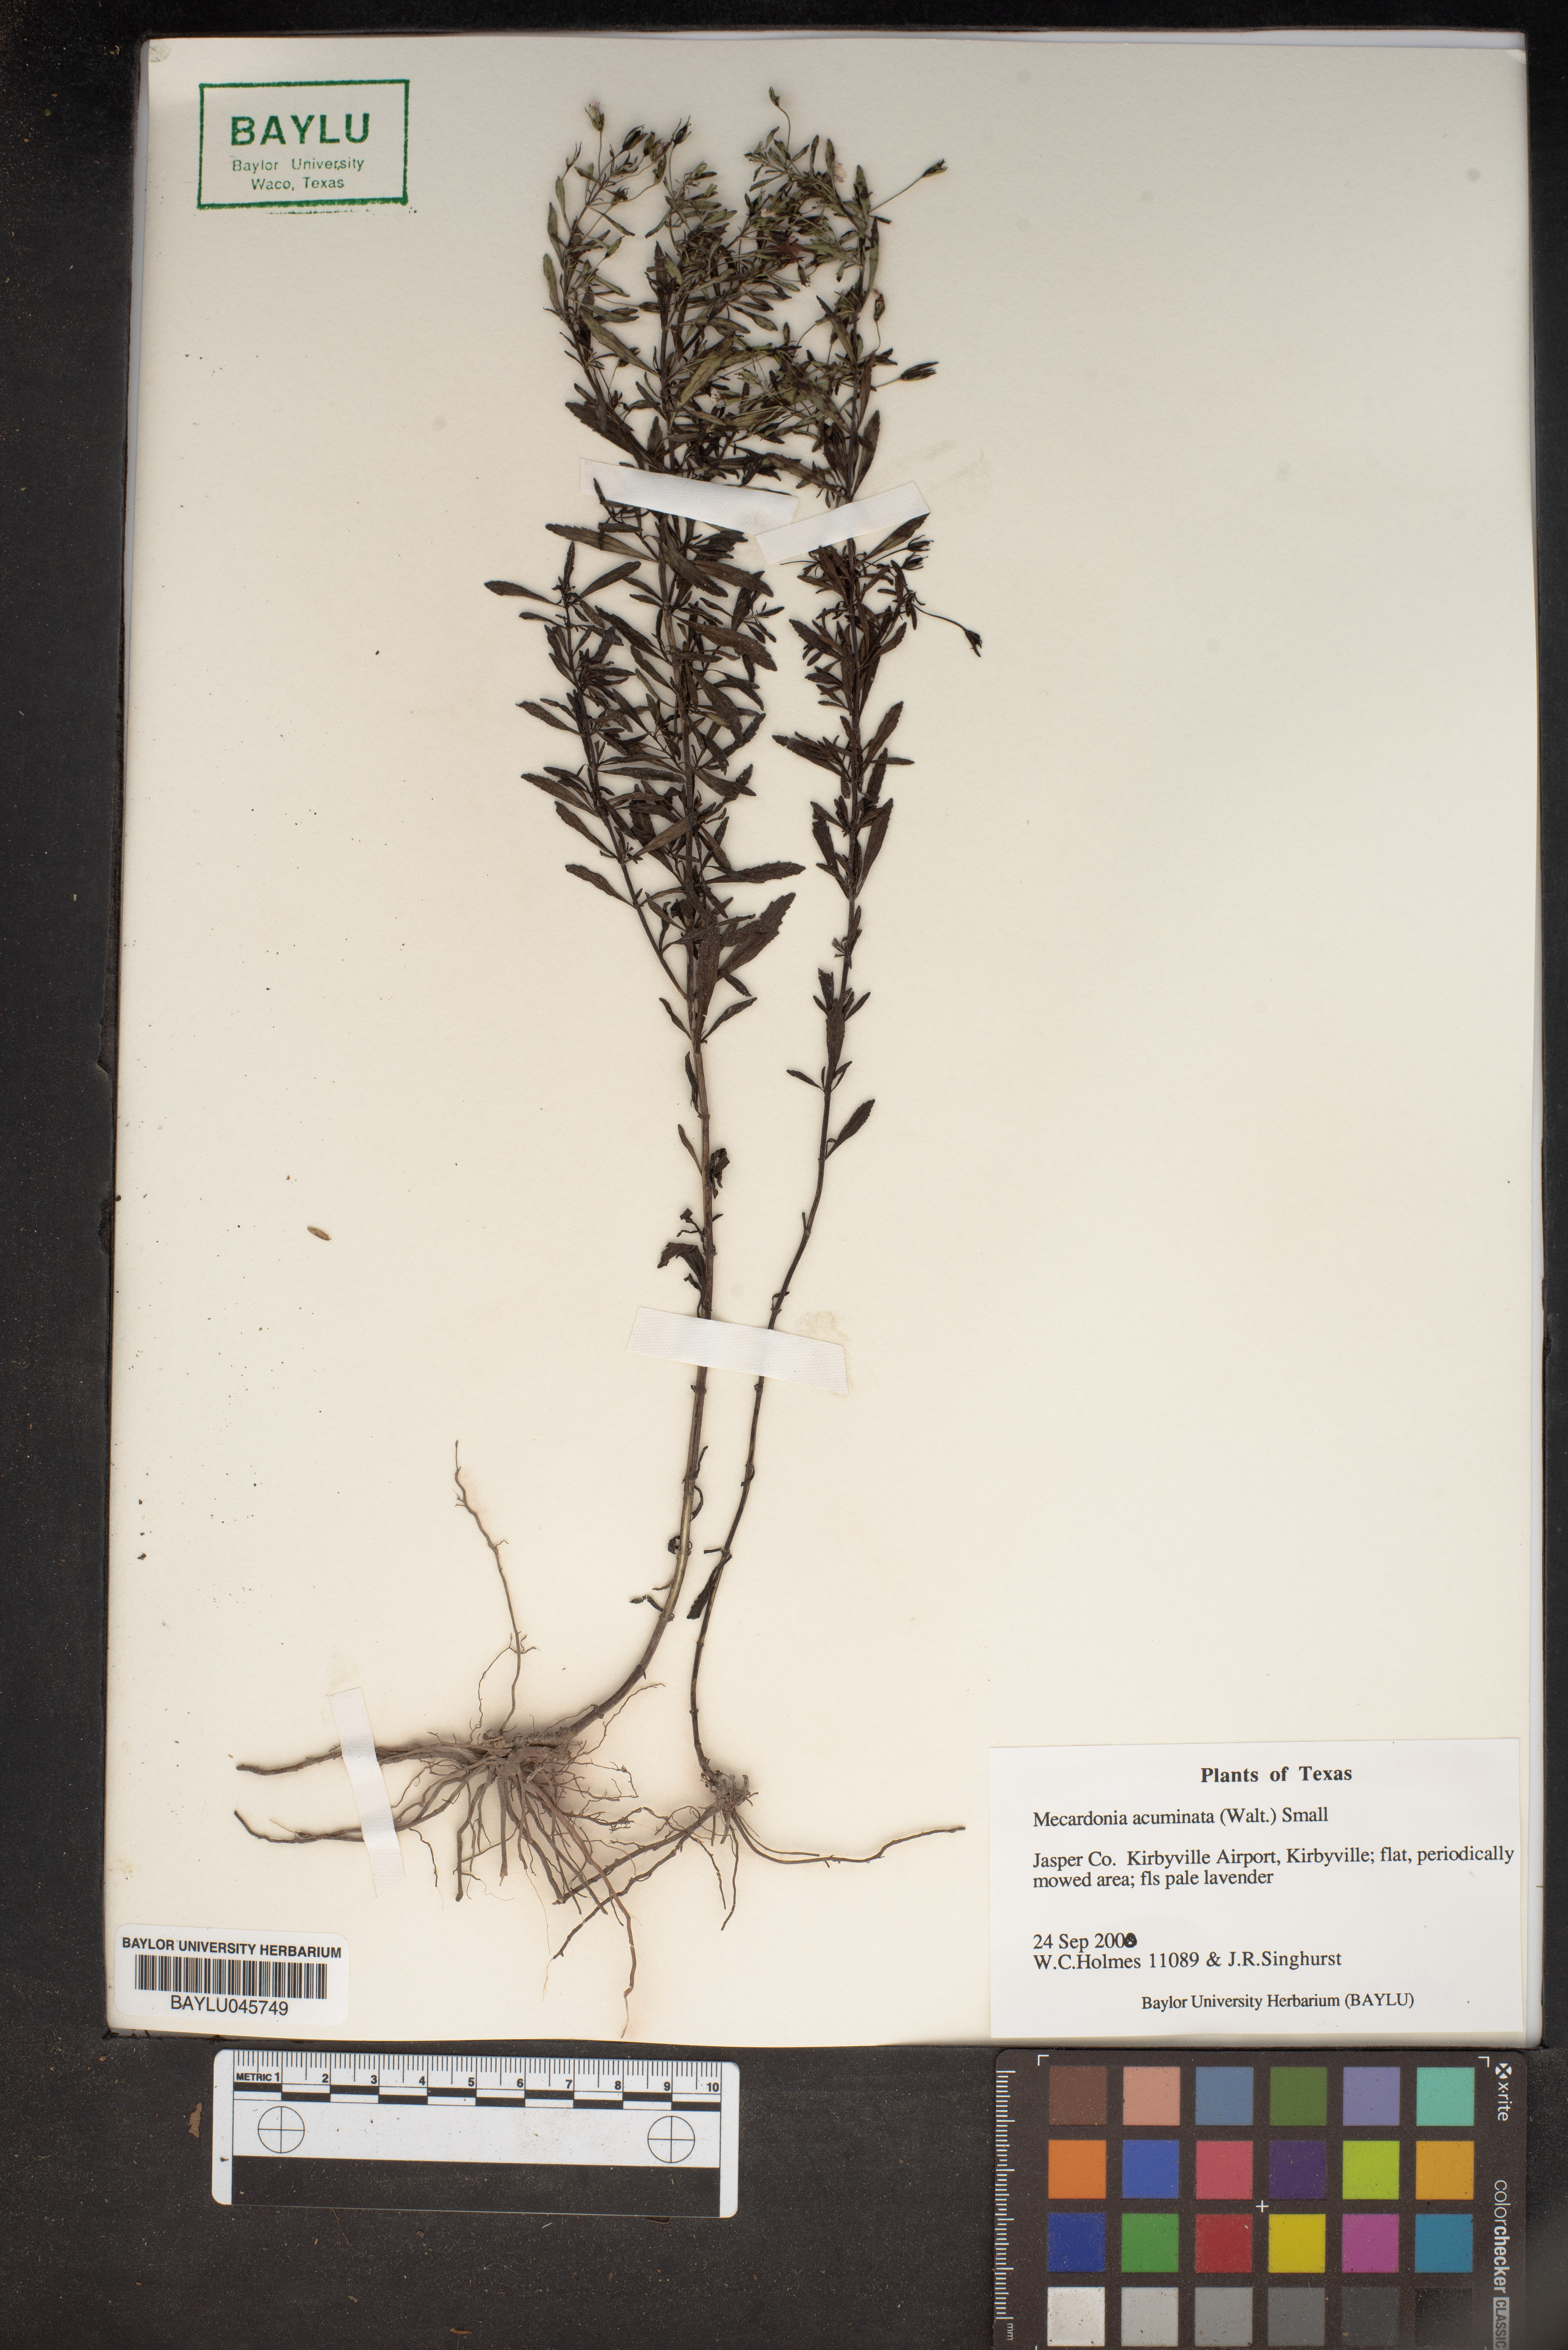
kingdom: Plantae
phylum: Tracheophyta
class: Magnoliopsida
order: Lamiales
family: Plantaginaceae
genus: Mecardonia
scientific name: Mecardonia acuminata
